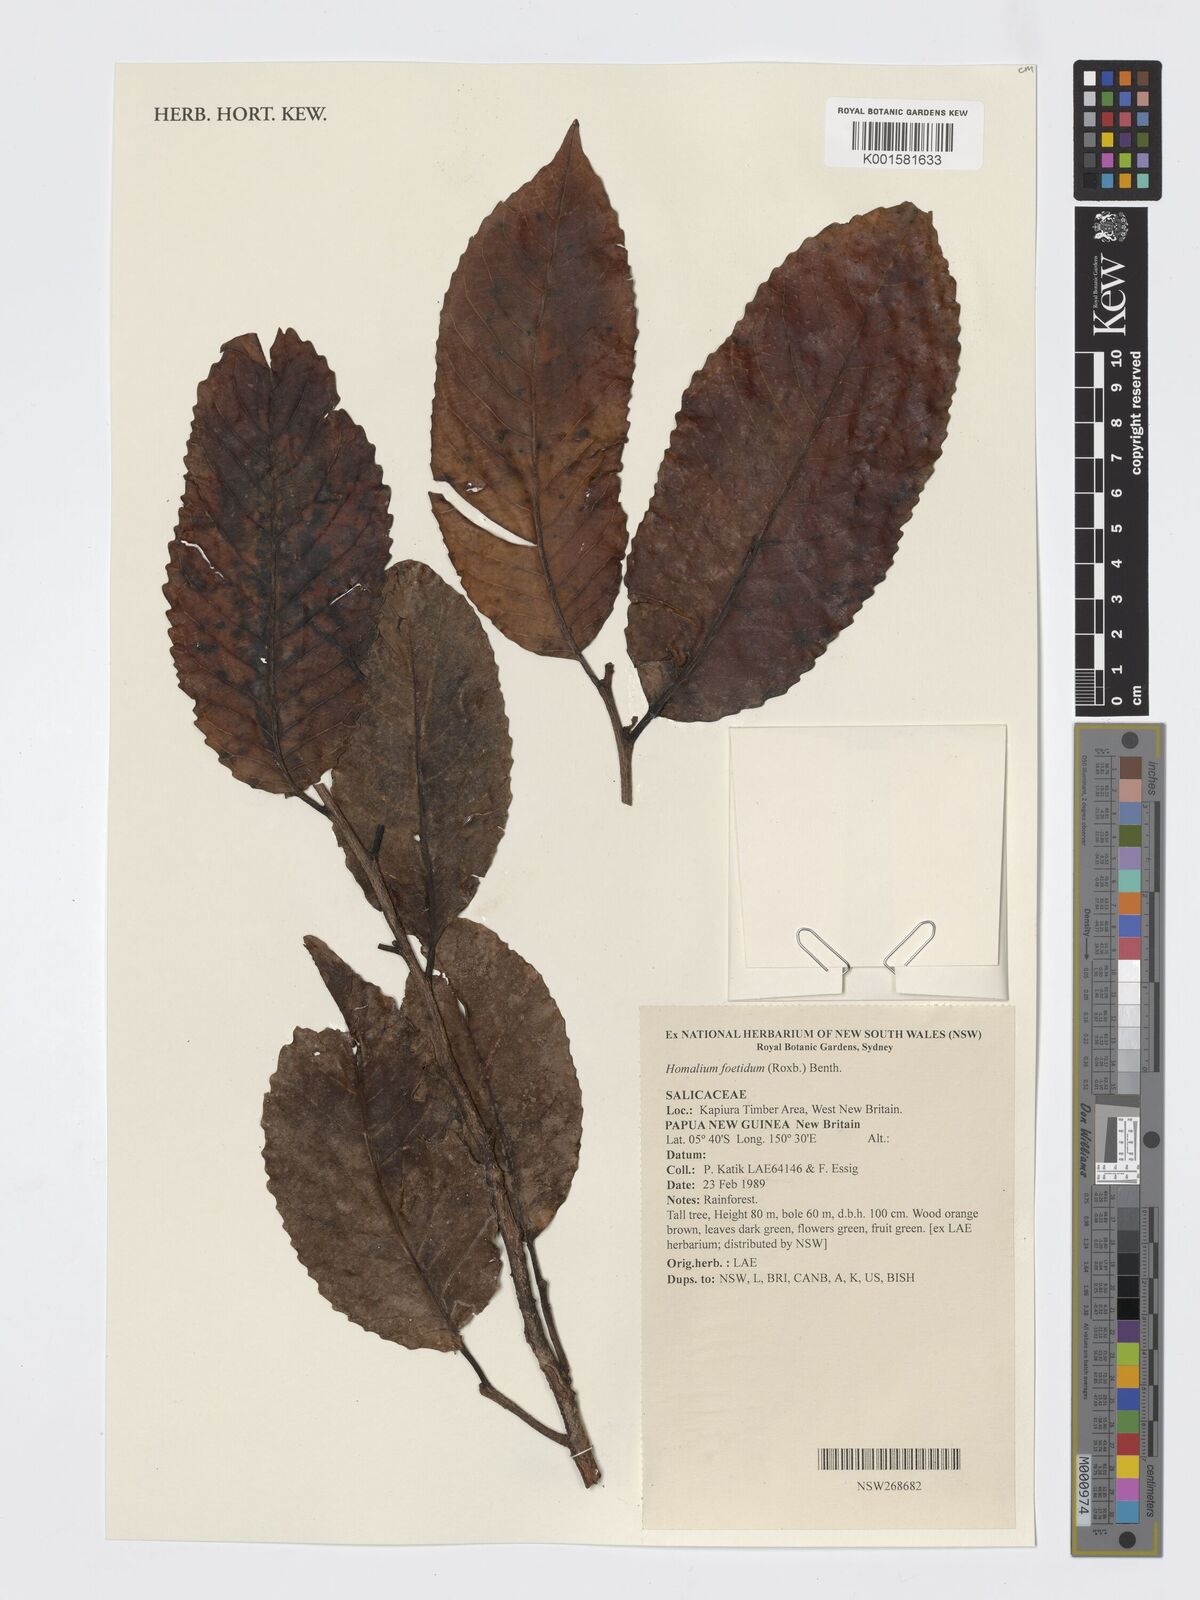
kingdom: Plantae
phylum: Tracheophyta
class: Magnoliopsida
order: Malpighiales
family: Salicaceae
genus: Homalium
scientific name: Homalium foetidum
